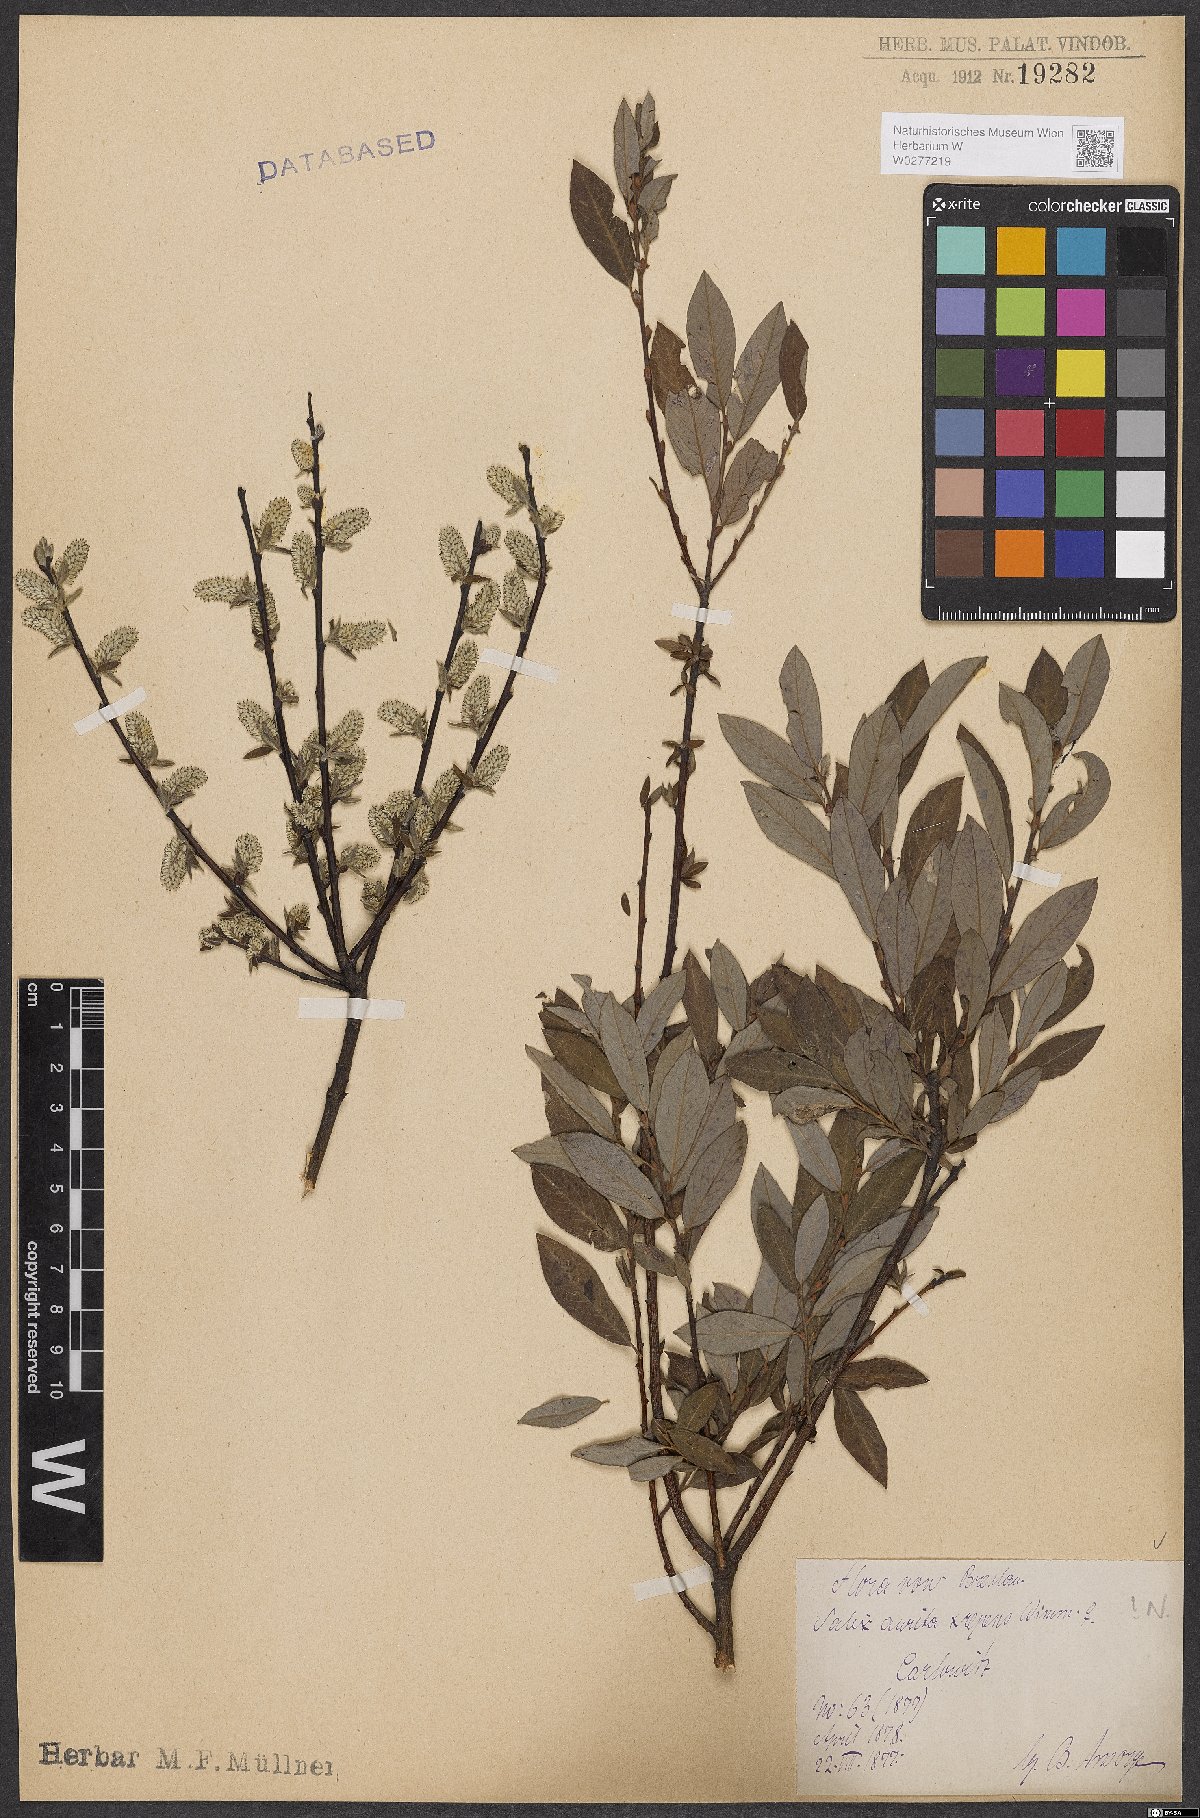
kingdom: Plantae
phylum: Tracheophyta
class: Magnoliopsida
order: Malpighiales
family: Salicaceae
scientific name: Salicaceae
